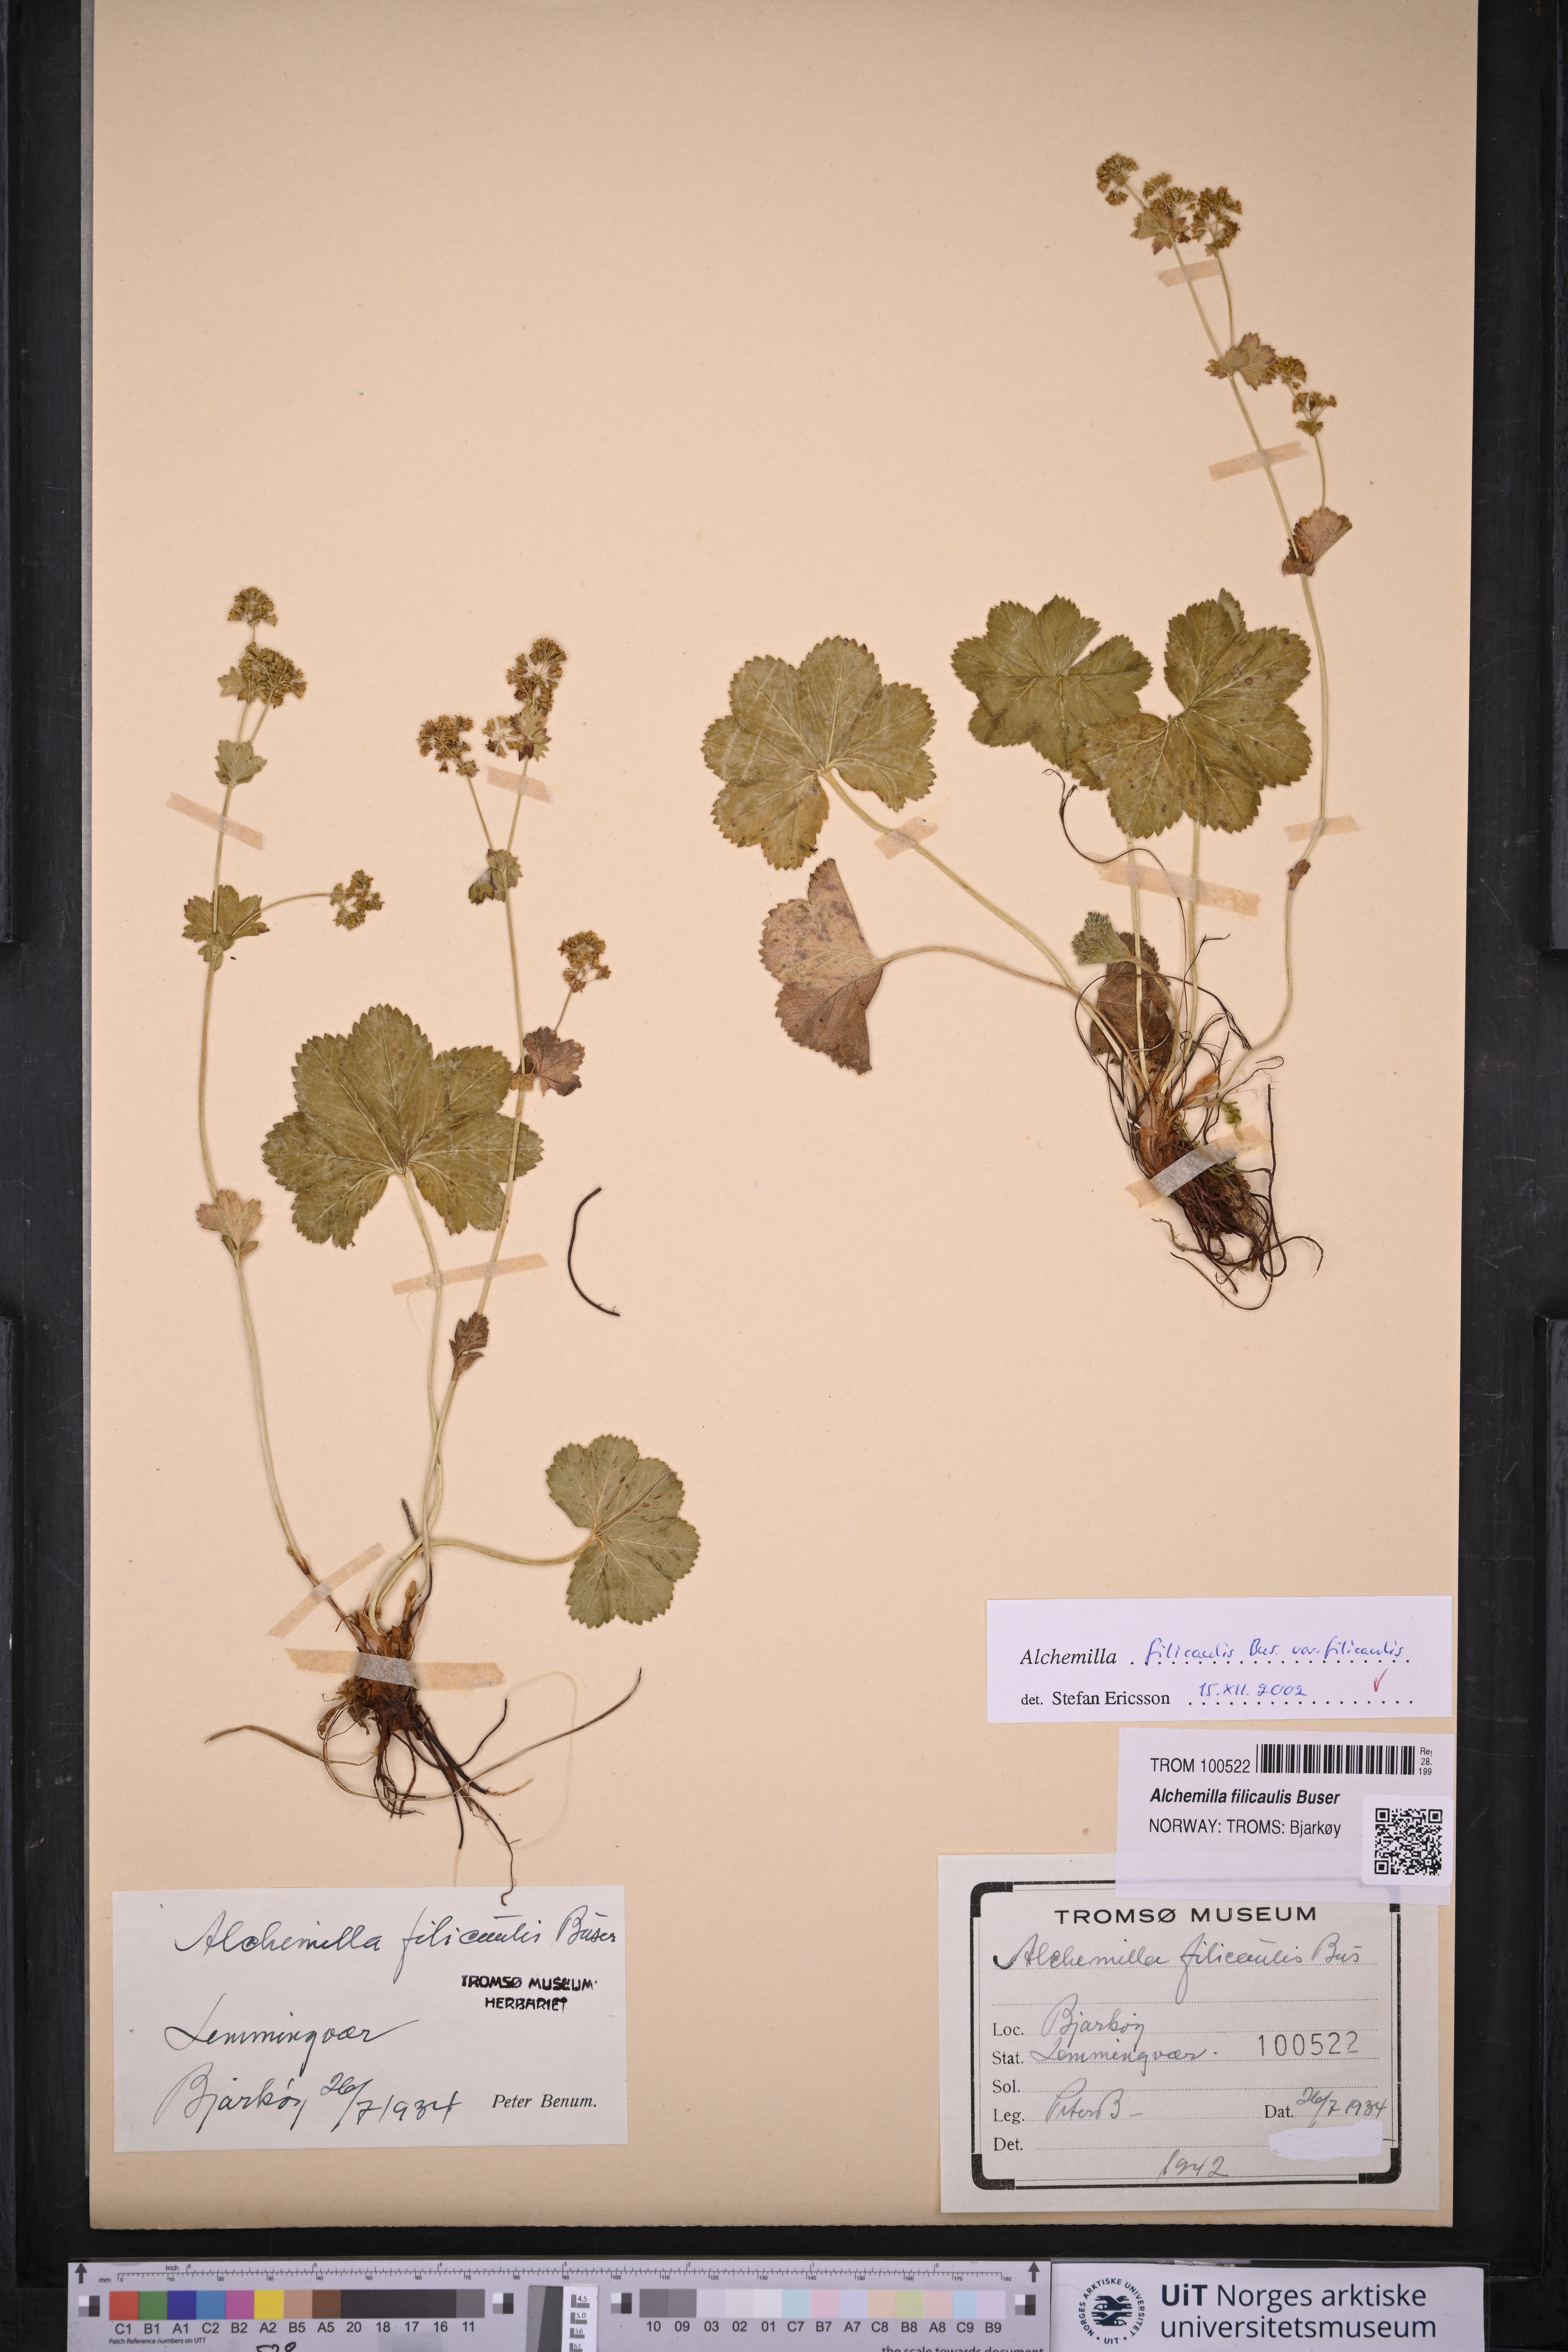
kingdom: Plantae
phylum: Tracheophyta
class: Magnoliopsida
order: Rosales
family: Rosaceae
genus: Alchemilla
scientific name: Alchemilla filicaulis
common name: Hairy lady's-mantle
